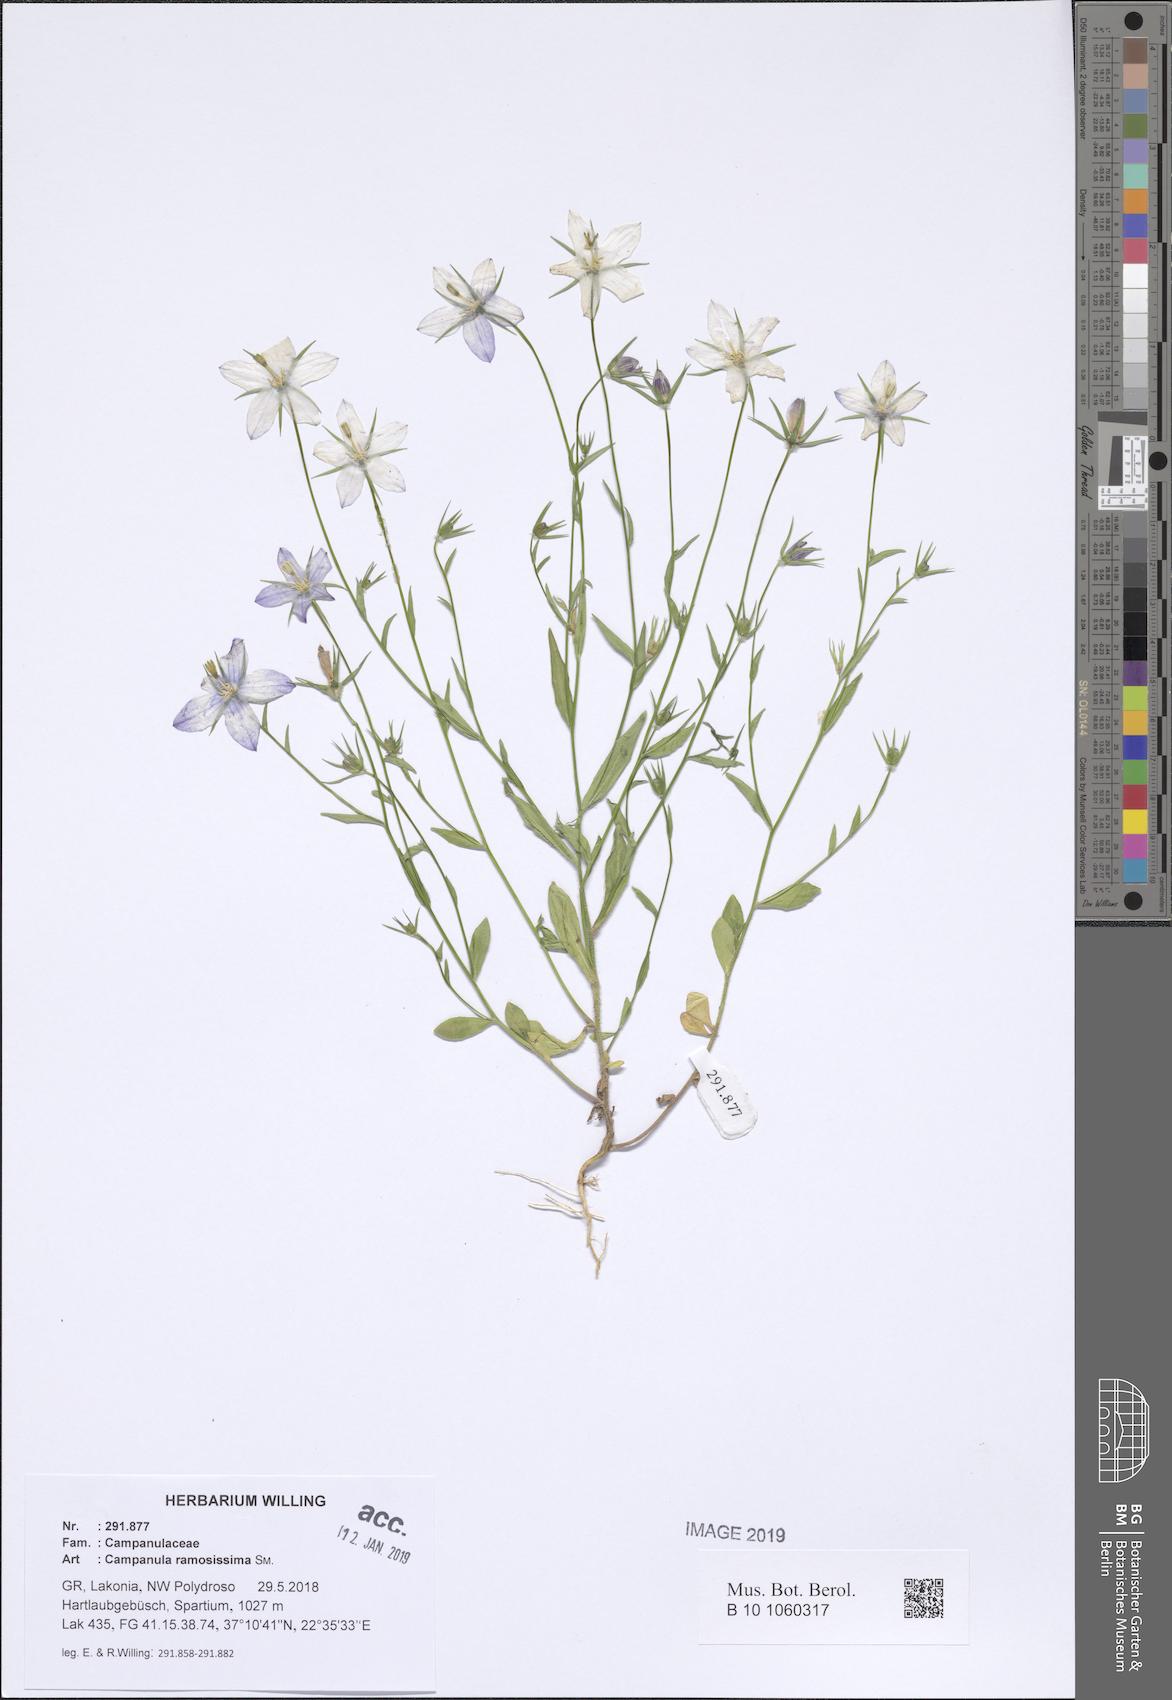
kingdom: Plantae
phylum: Tracheophyta
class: Magnoliopsida
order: Asterales
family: Campanulaceae
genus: Campanula
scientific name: Campanula ramosissima
